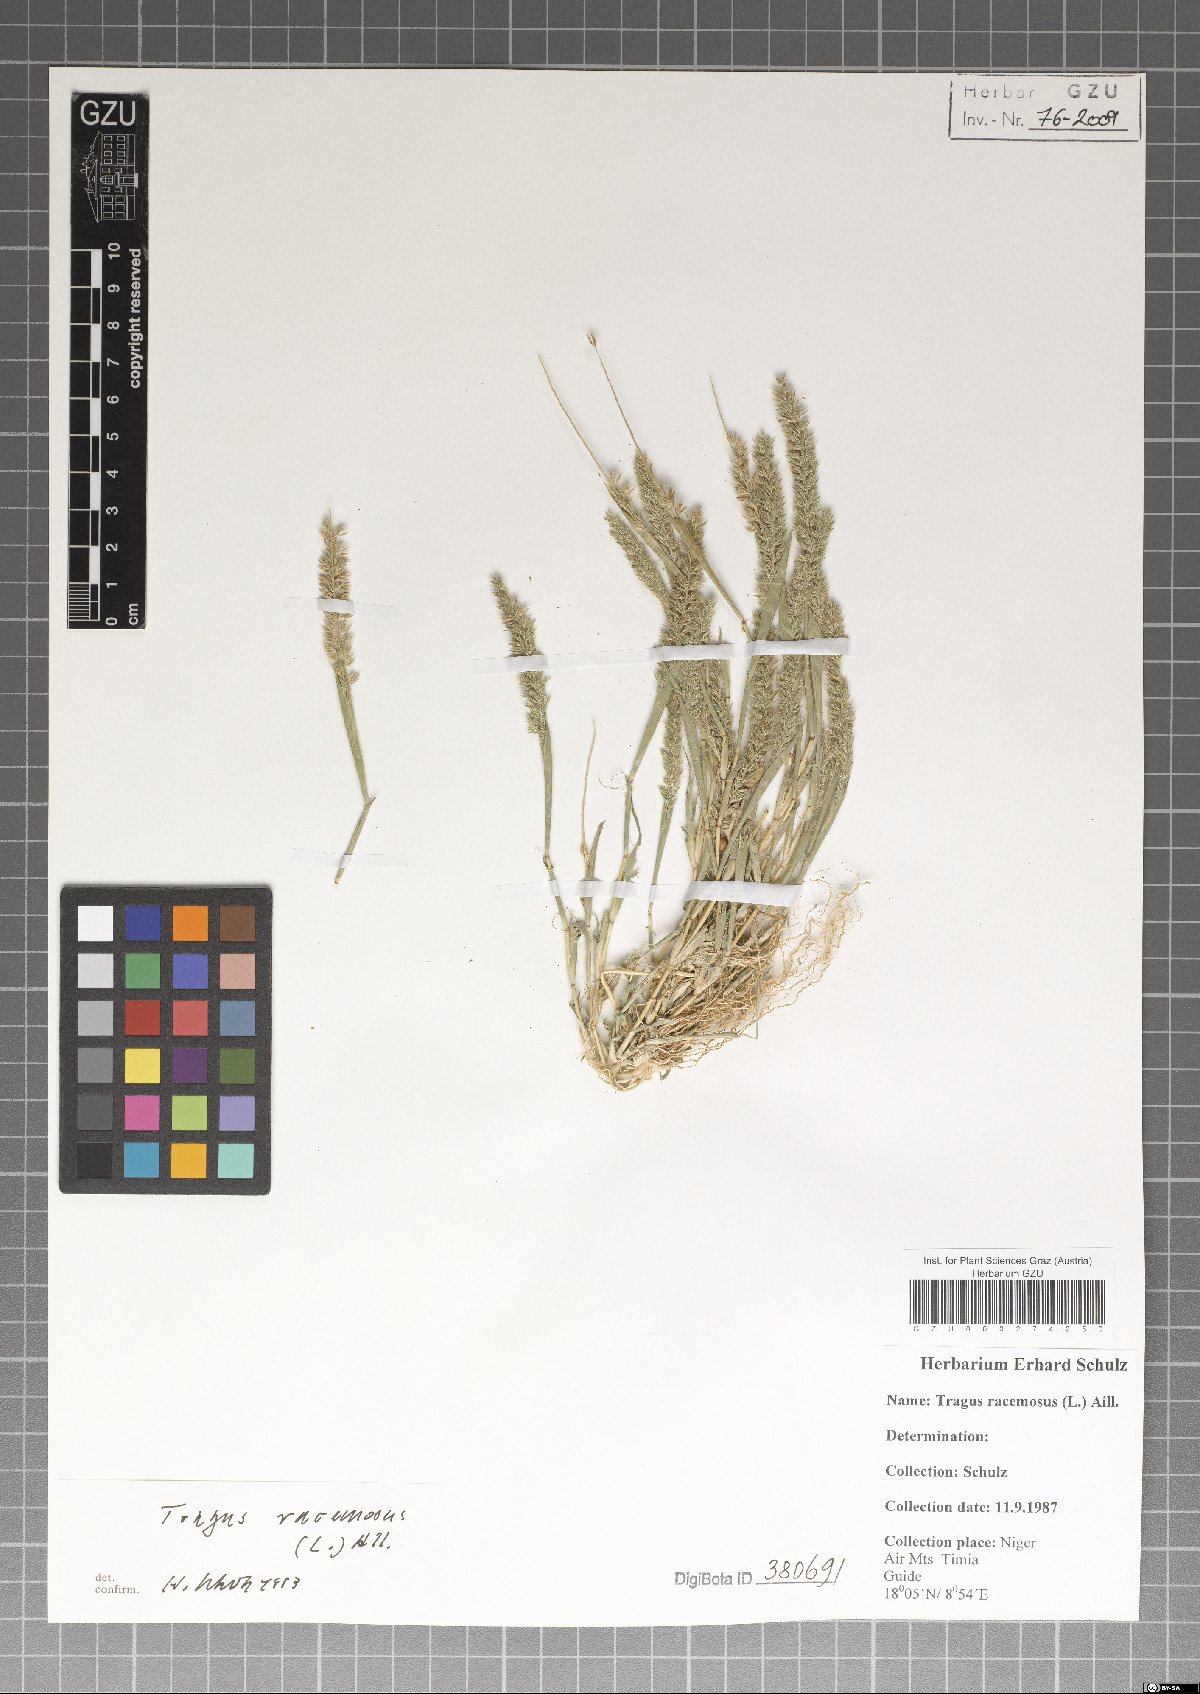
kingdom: Plantae
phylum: Tracheophyta
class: Liliopsida
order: Poales
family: Poaceae
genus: Tragus
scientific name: Tragus racemosus
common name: European bur-grass
